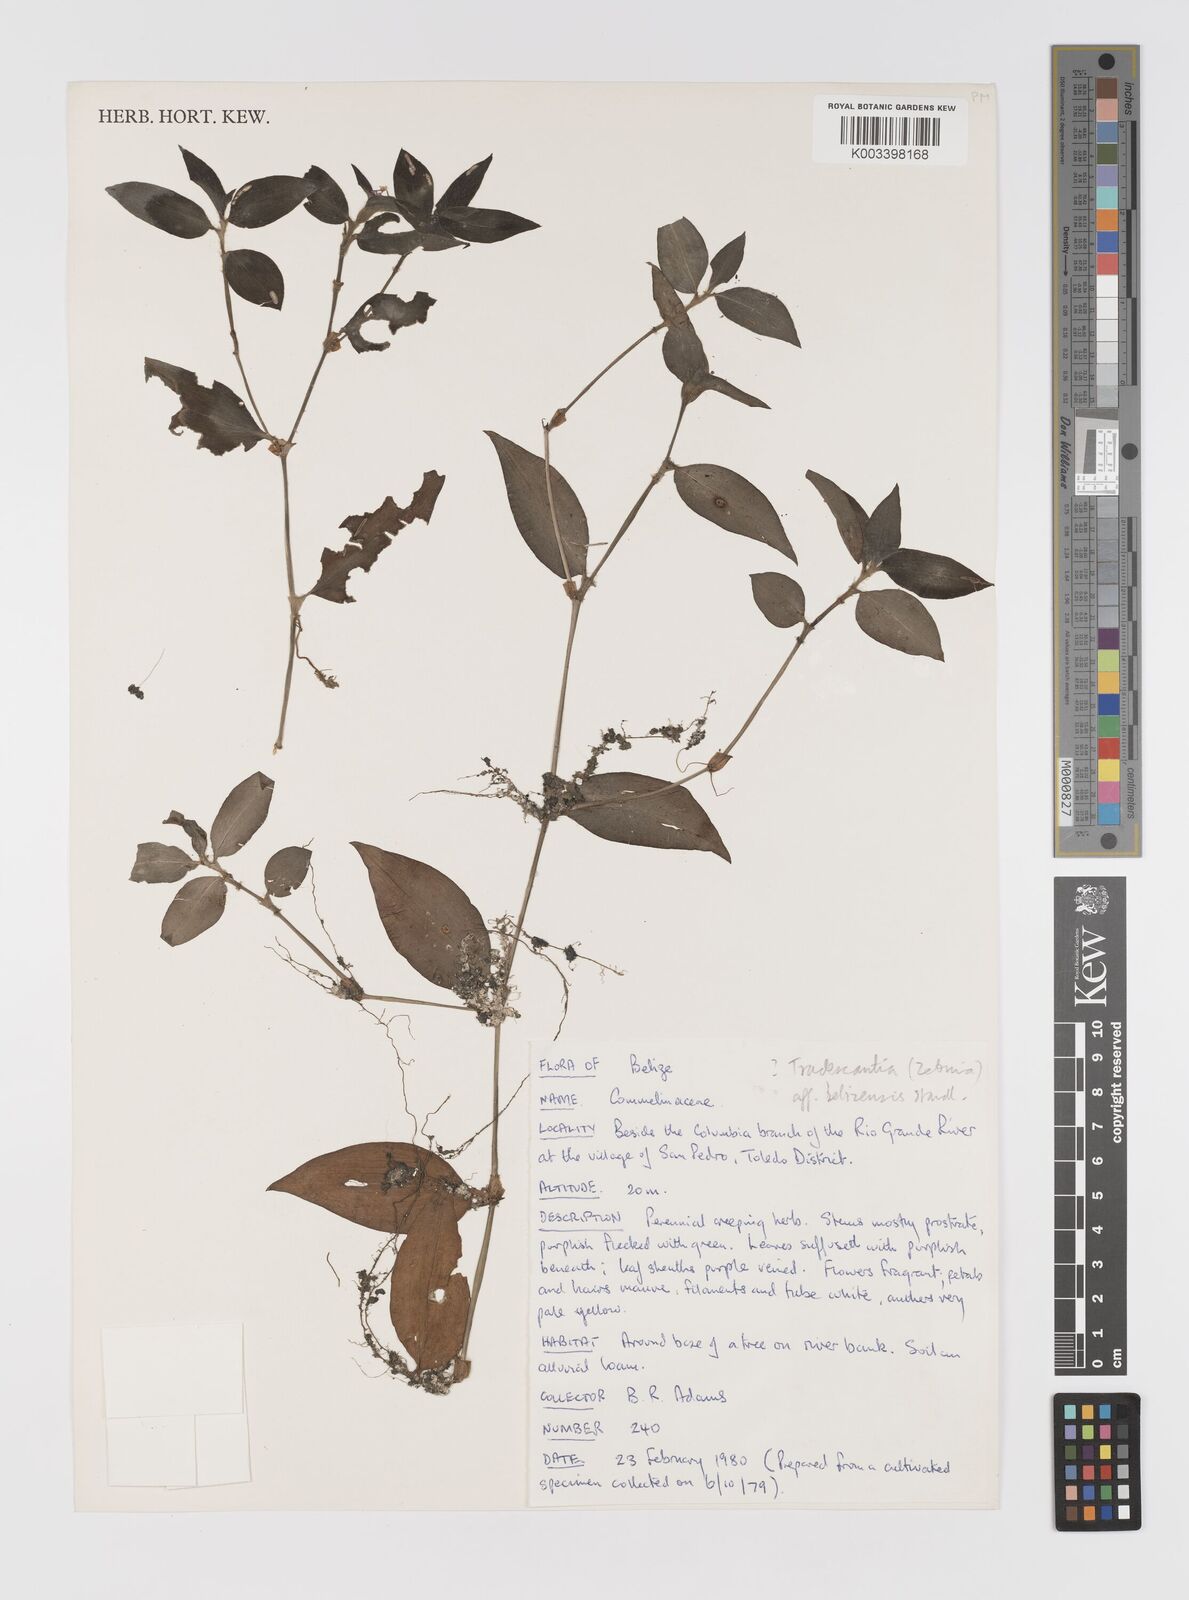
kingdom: Plantae
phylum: Tracheophyta
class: Liliopsida
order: Commelinales
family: Commelinaceae
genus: Tradescantia
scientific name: Tradescantia zebrina
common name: Inchplant
